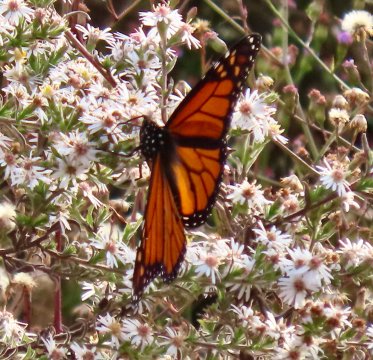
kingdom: Animalia
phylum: Arthropoda
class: Insecta
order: Lepidoptera
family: Nymphalidae
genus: Danaus
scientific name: Danaus plexippus
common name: Monarch
